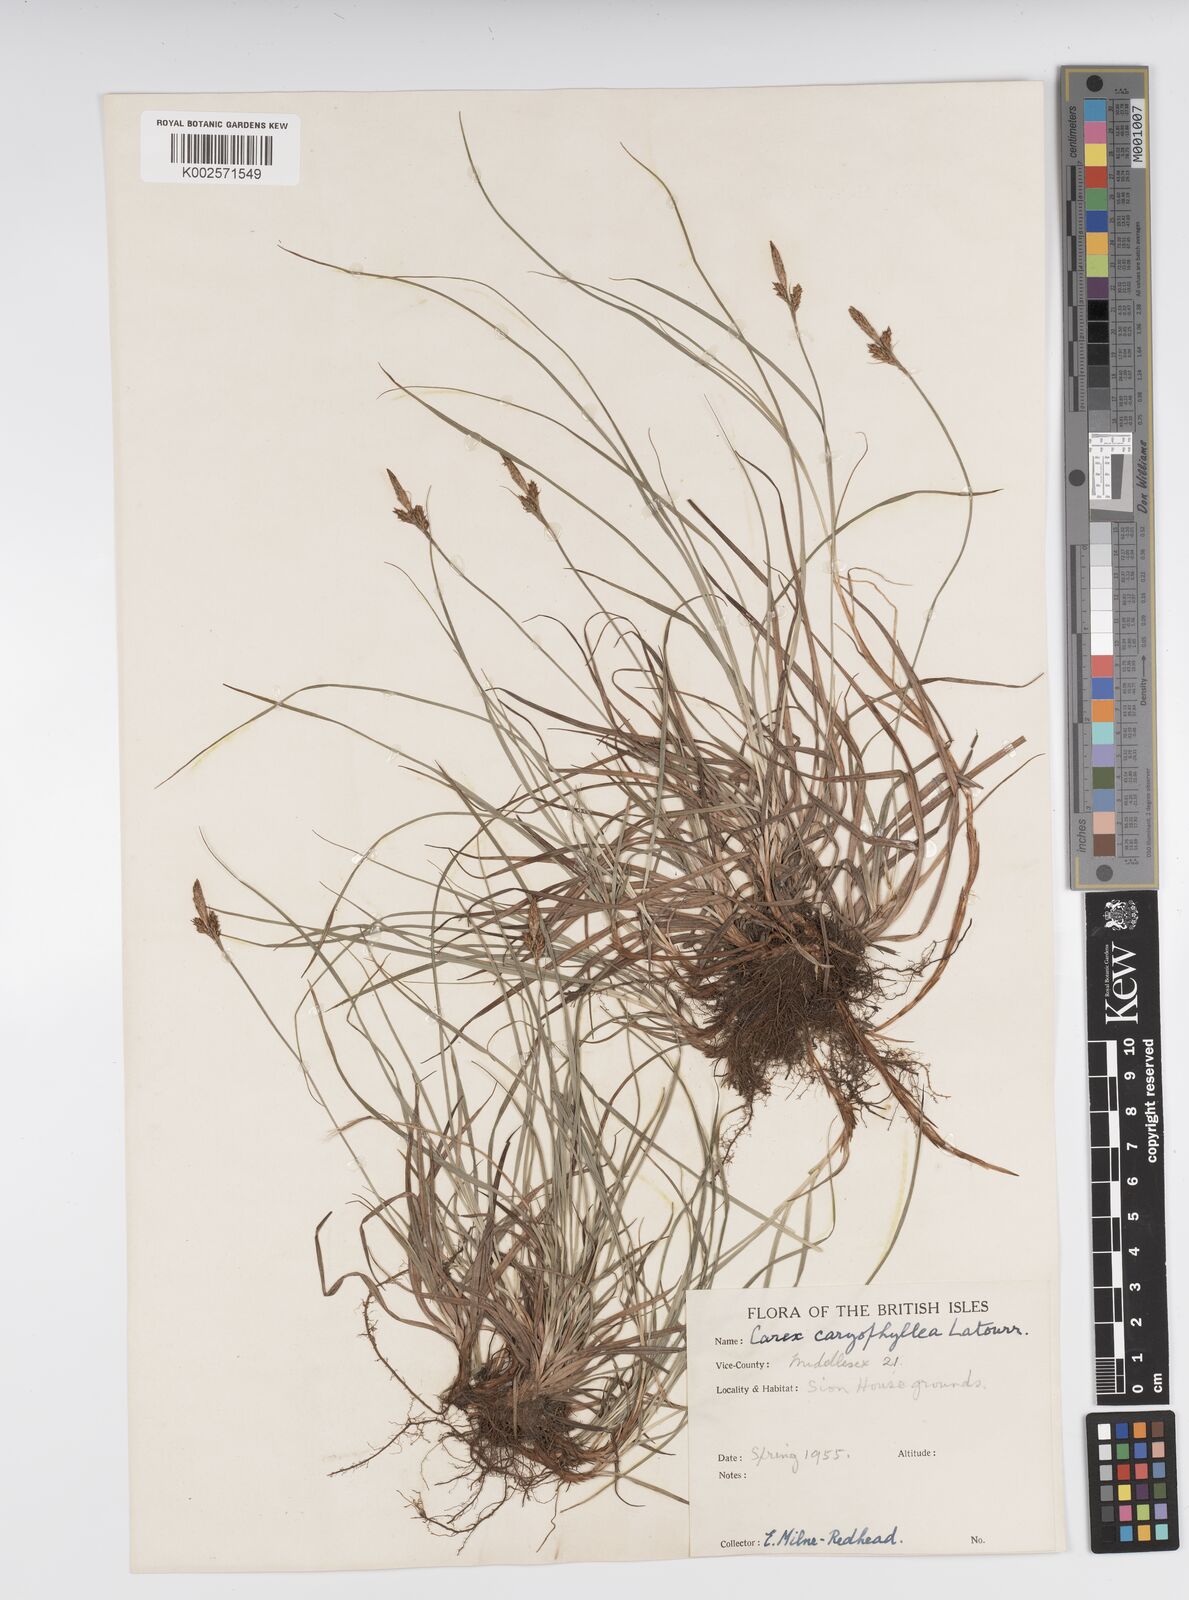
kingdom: Plantae
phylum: Tracheophyta
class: Liliopsida
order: Poales
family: Cyperaceae
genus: Carex
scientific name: Carex caryophyllea
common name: Spring sedge
